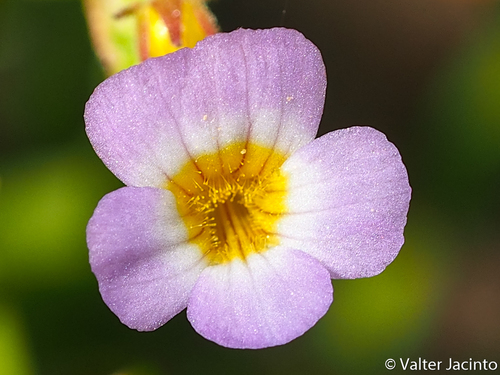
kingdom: Plantae
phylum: Tracheophyta
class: Magnoliopsida
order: Lamiales
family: Plantaginaceae
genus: Gratiola
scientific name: Gratiola linifolia
